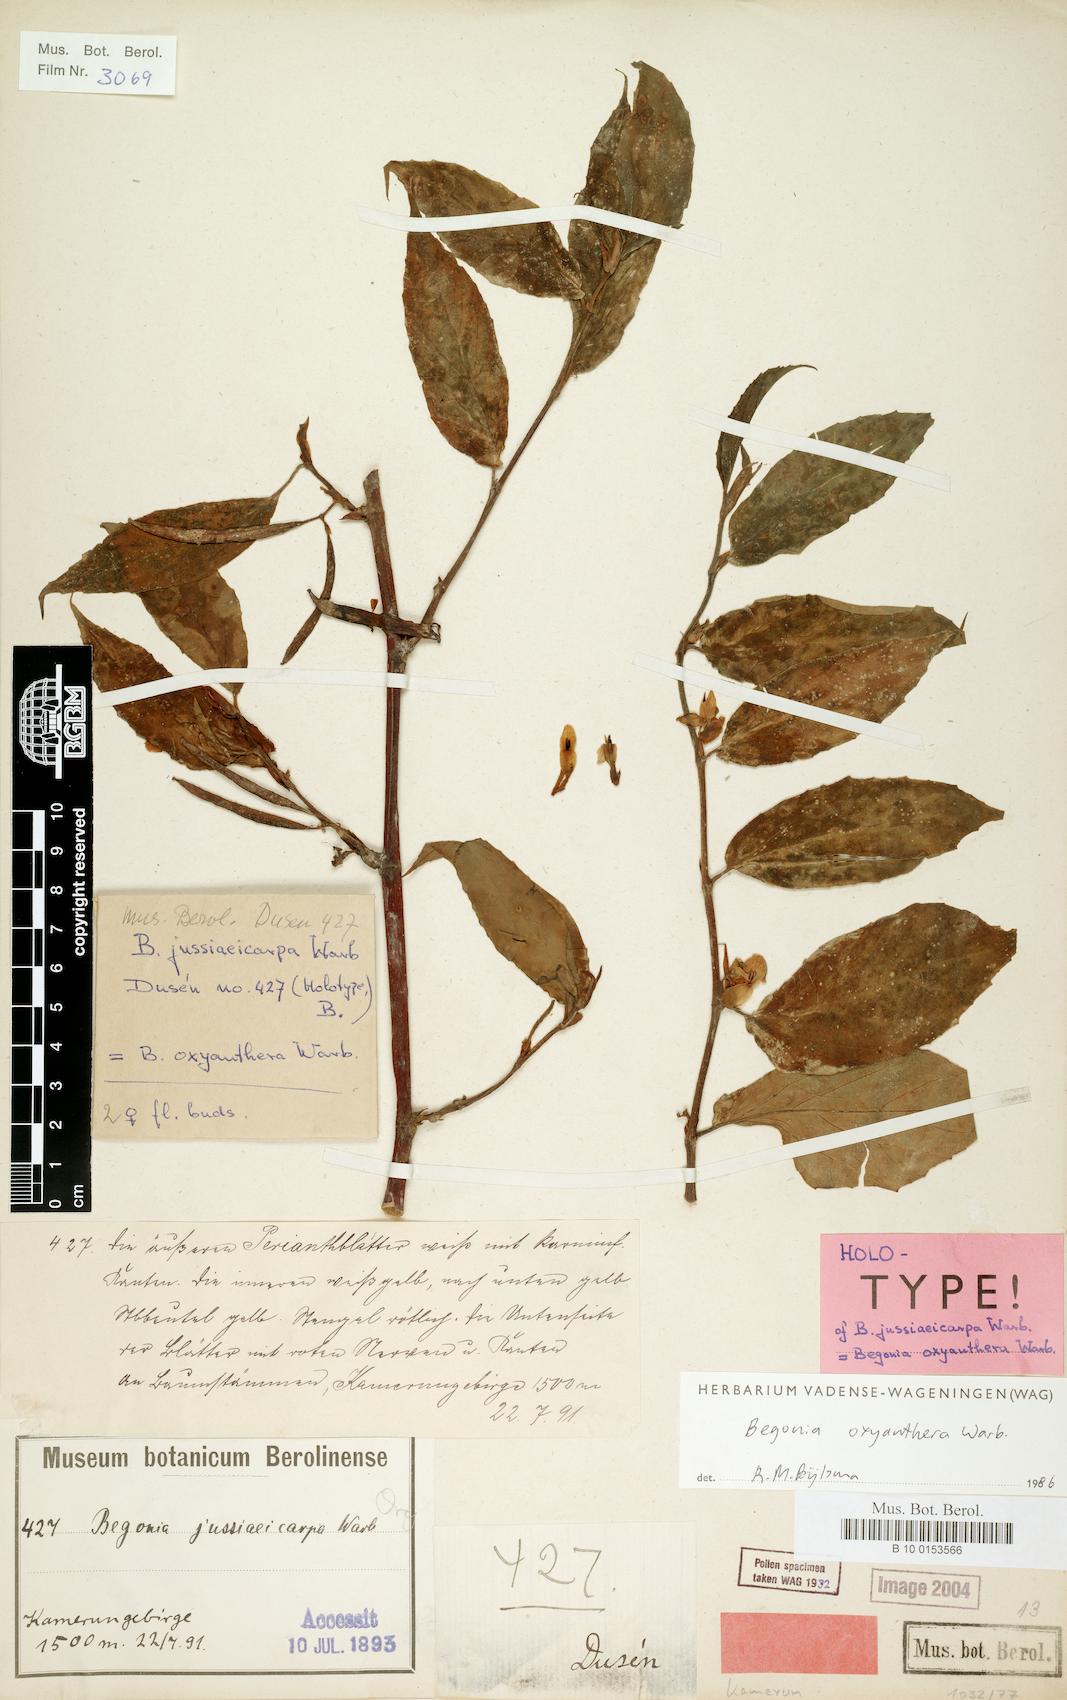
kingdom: Plantae
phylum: Tracheophyta
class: Magnoliopsida
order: Cucurbitales
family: Begoniaceae
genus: Begonia
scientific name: Begonia oxyanthera
